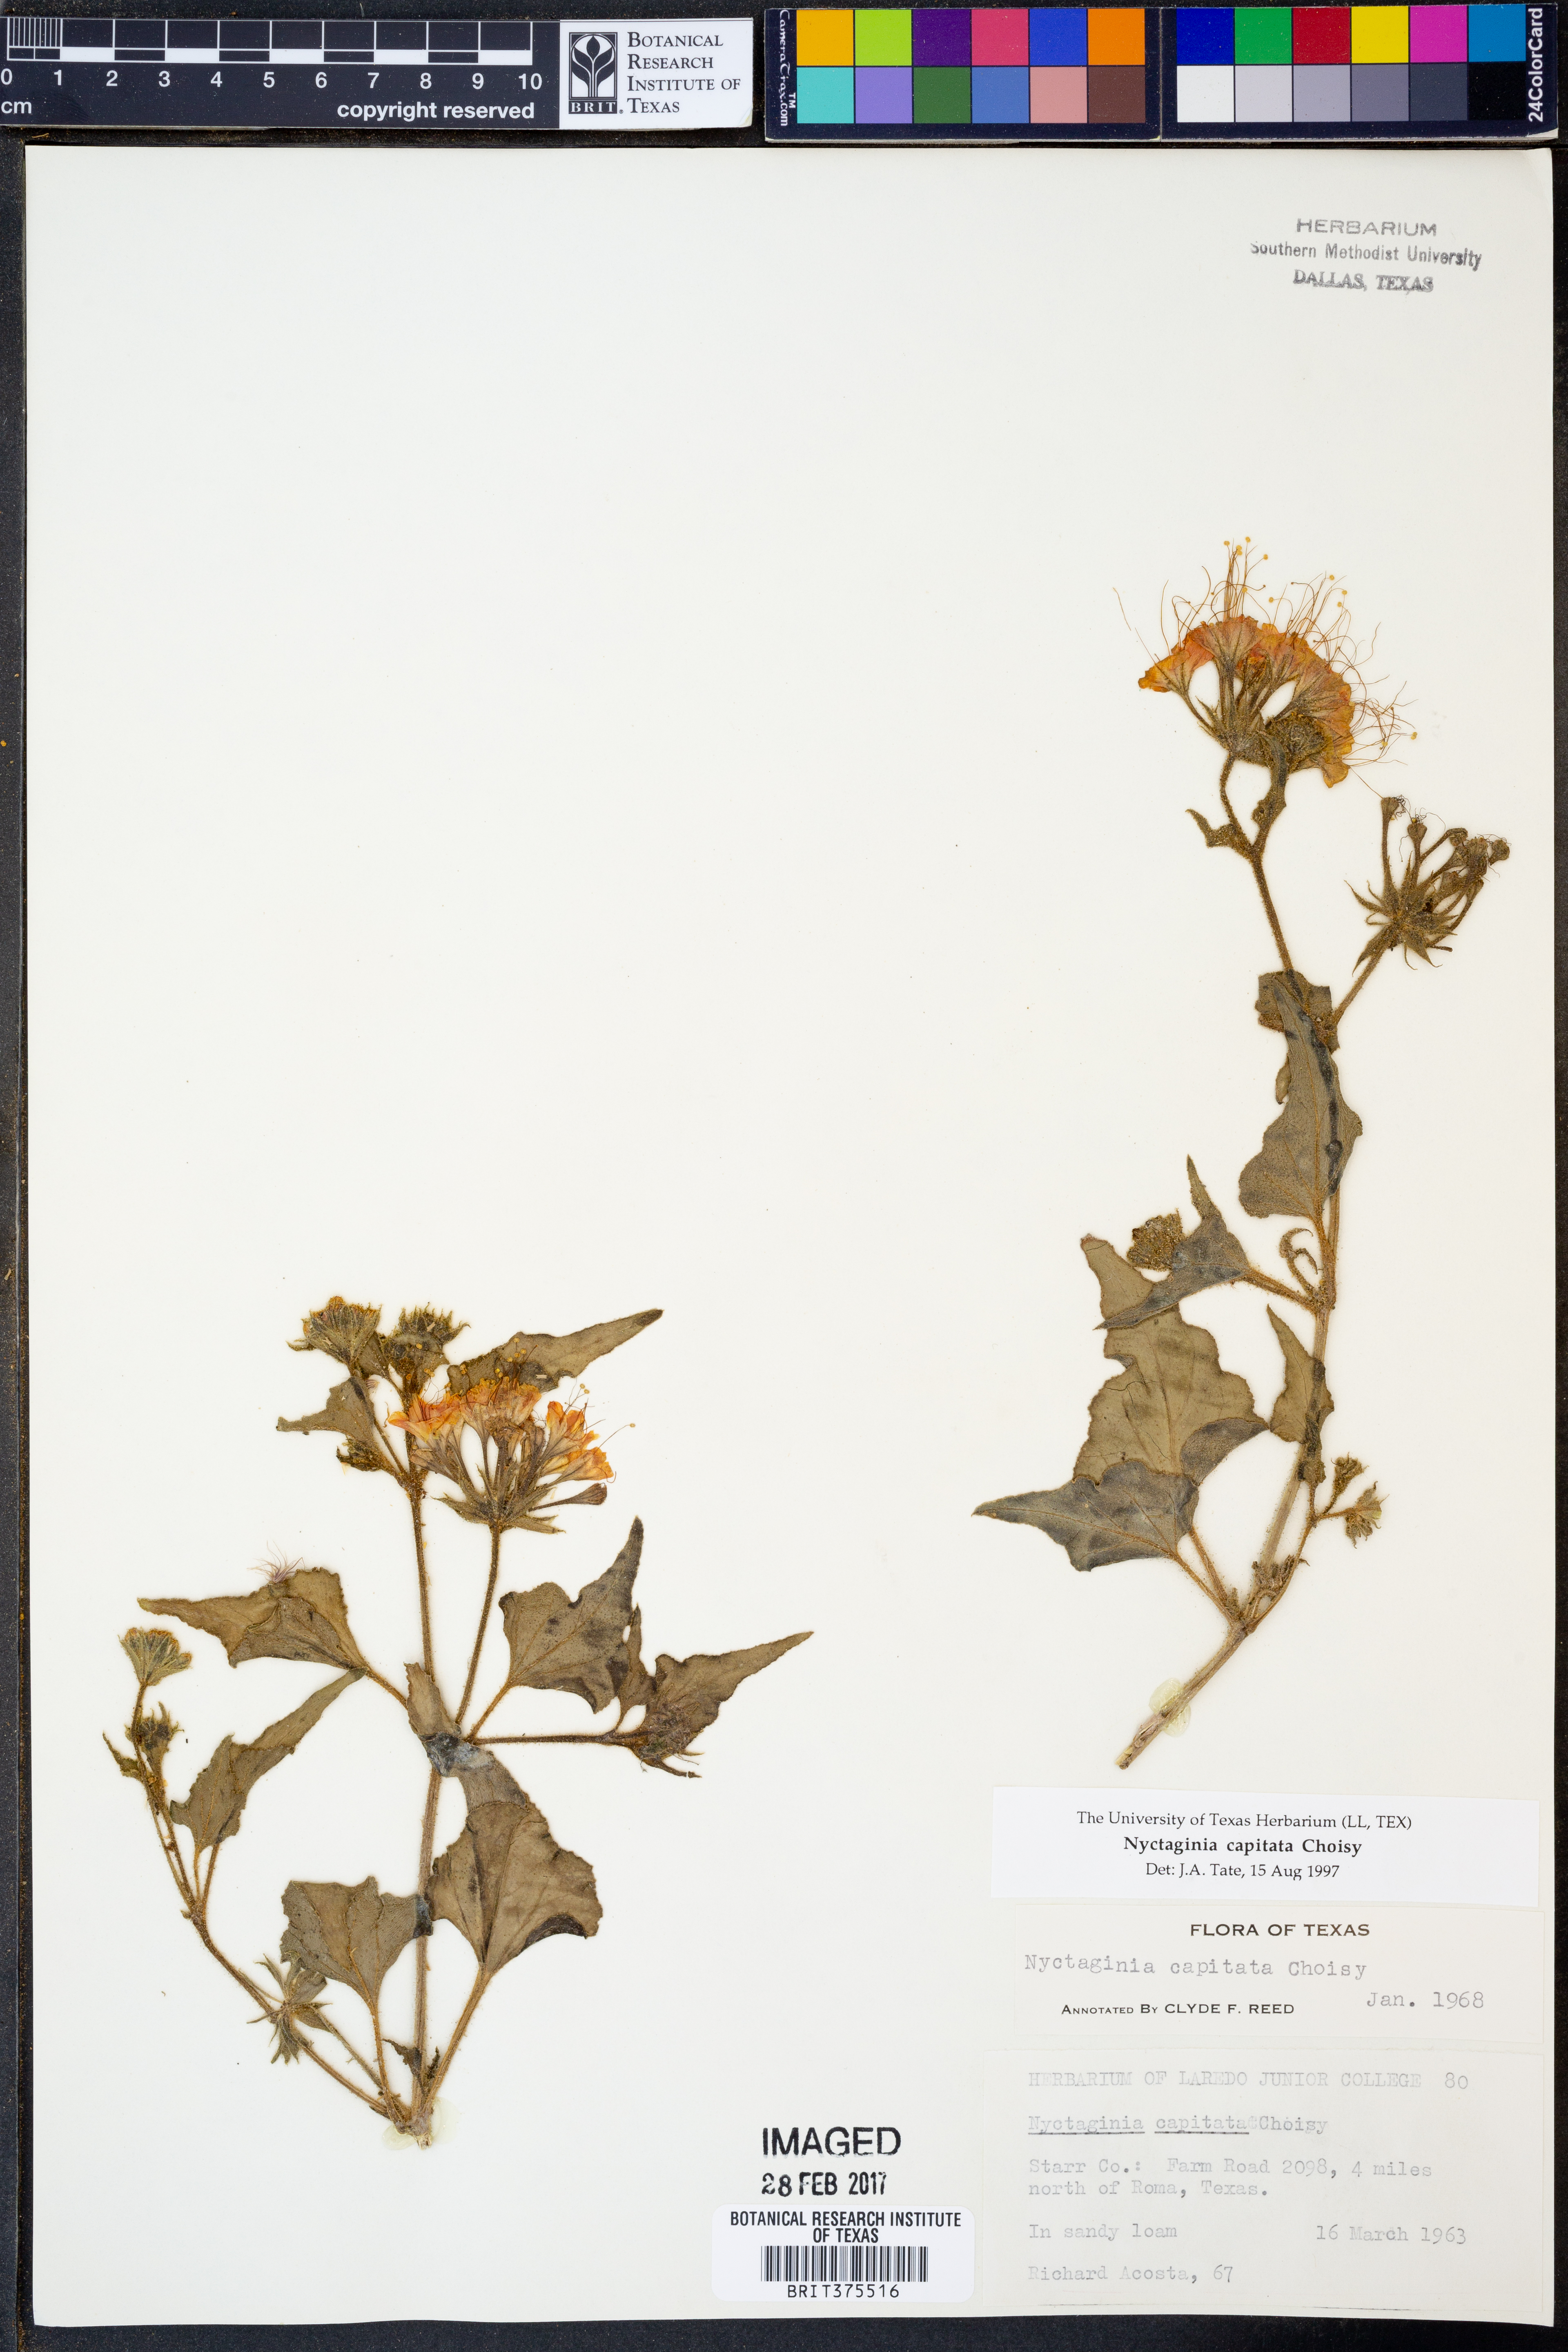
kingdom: Plantae
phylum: Tracheophyta
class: Magnoliopsida
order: Caryophyllales
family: Nyctaginaceae
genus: Nyctaginia
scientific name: Nyctaginia capitata
